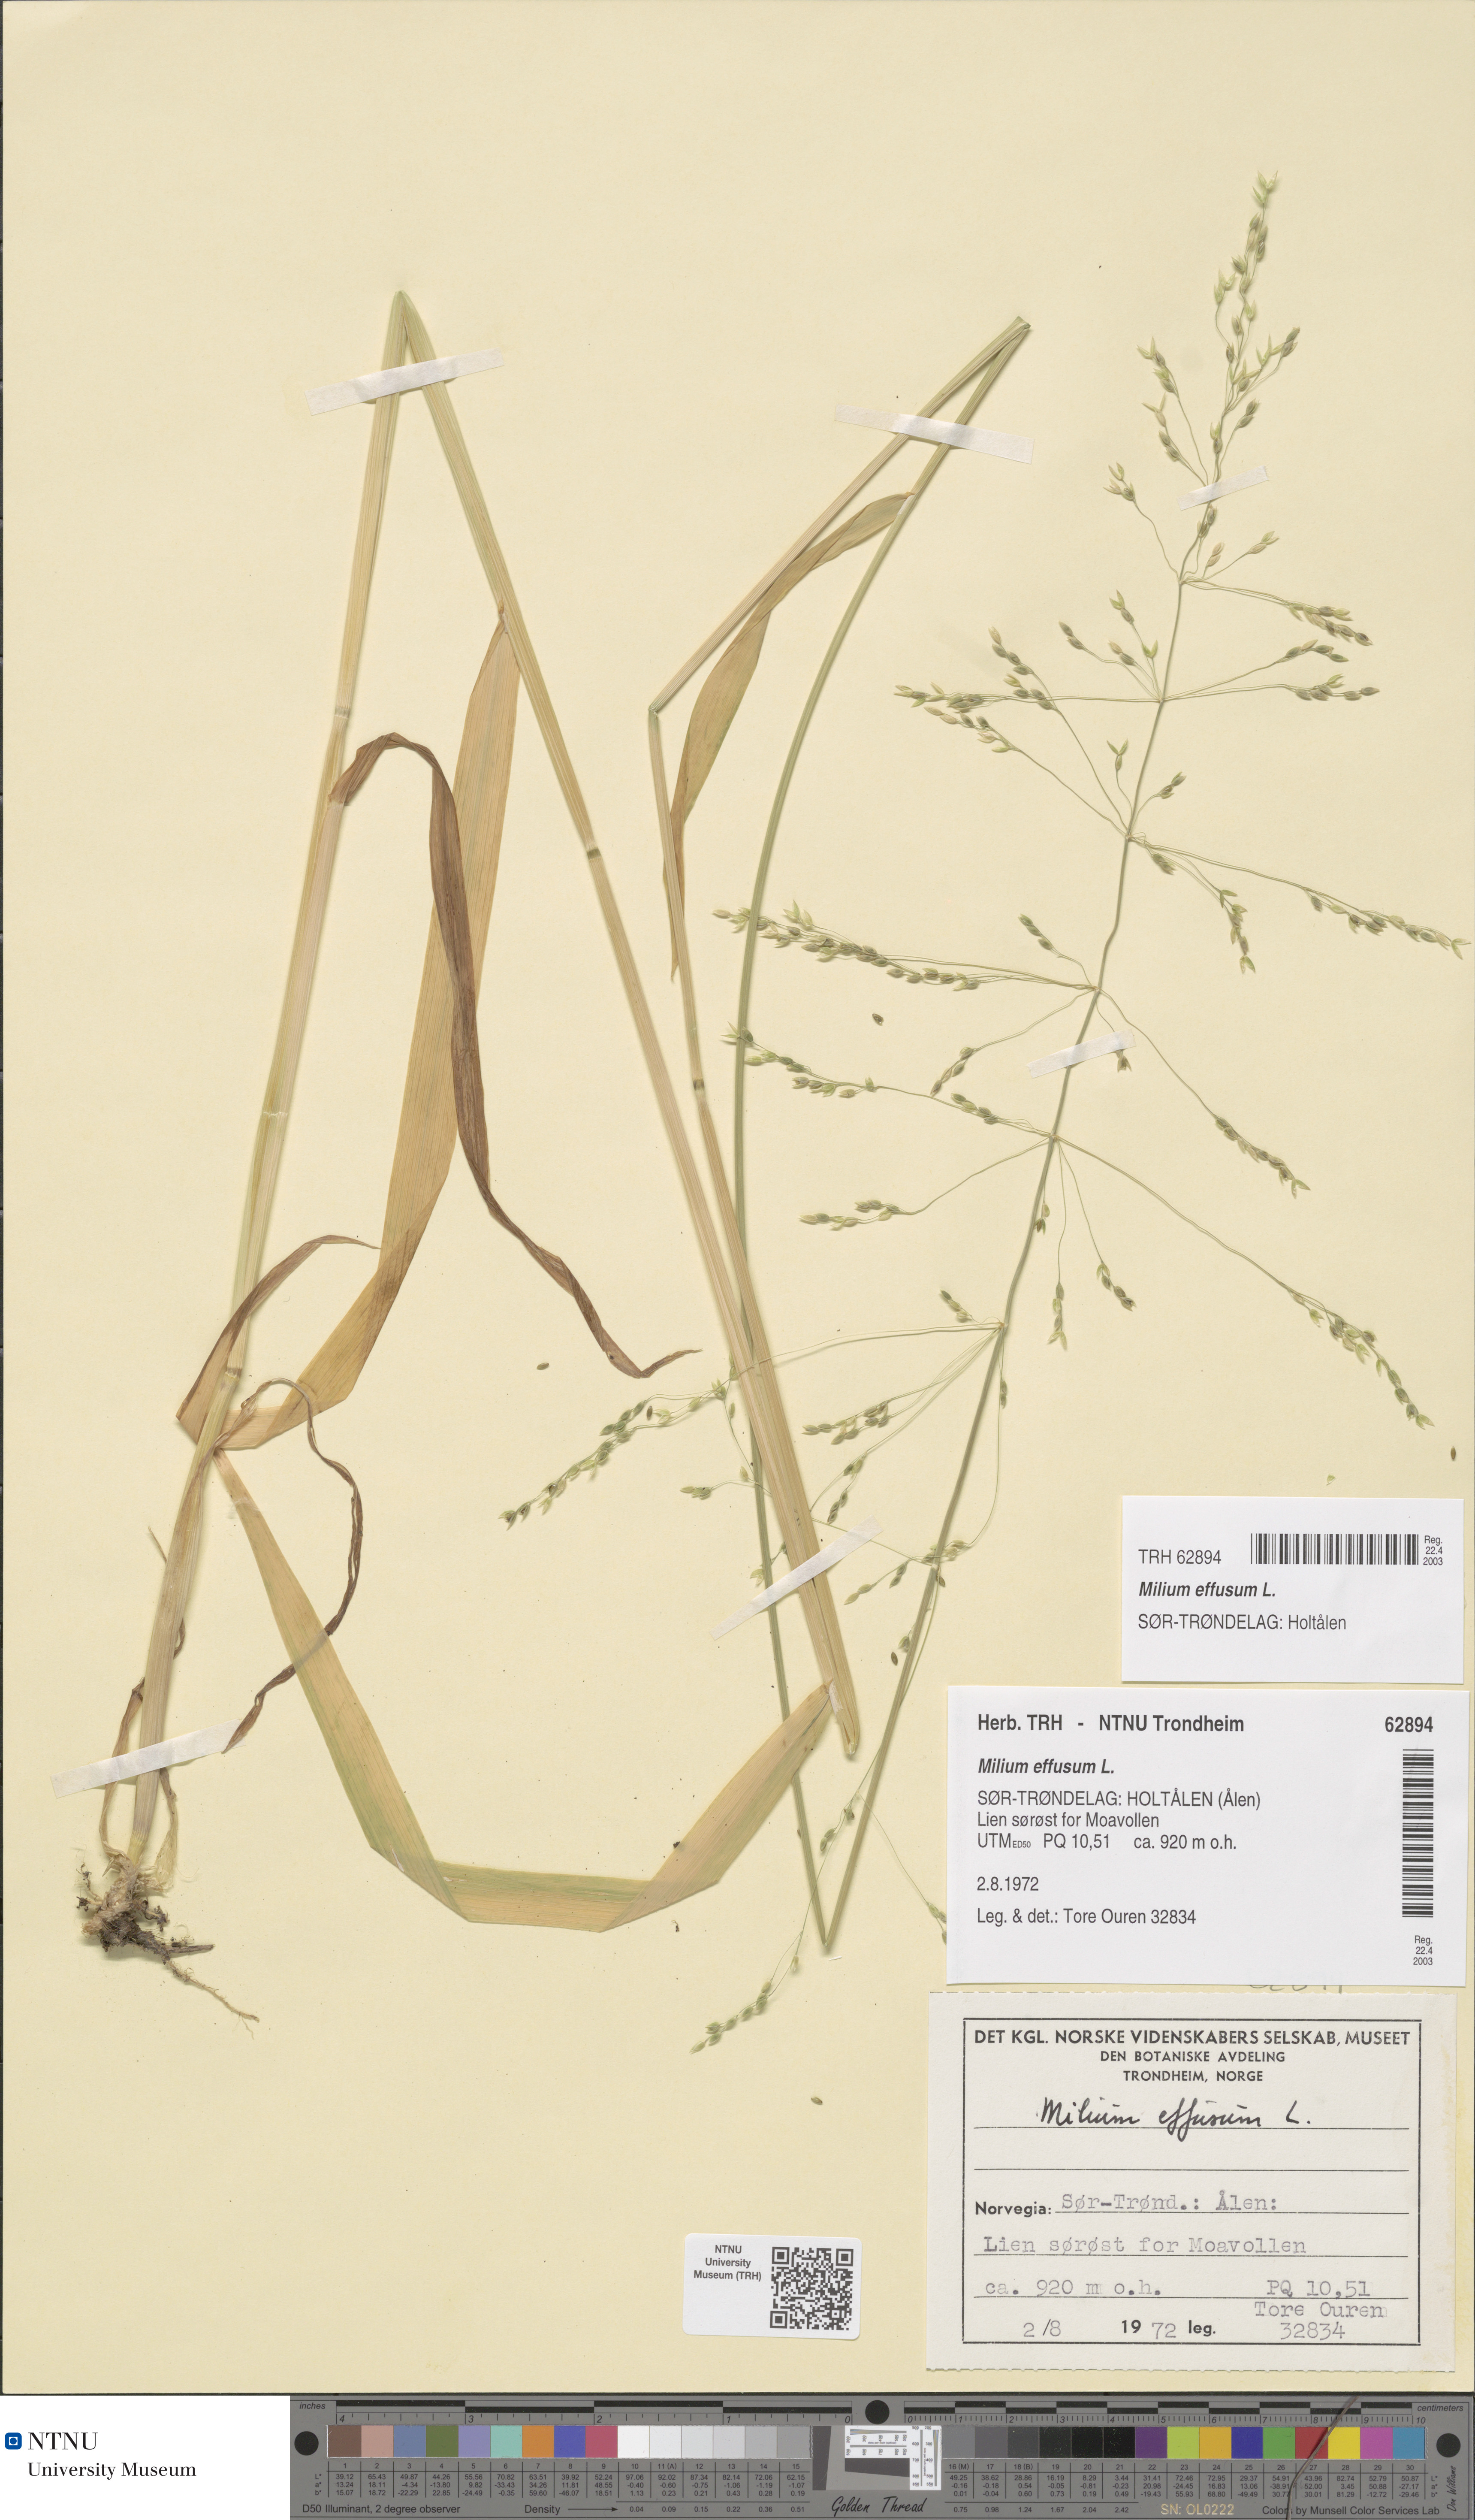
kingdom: Plantae
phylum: Tracheophyta
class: Liliopsida
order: Poales
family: Poaceae
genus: Milium
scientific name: Milium effusum
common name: Wood millet
